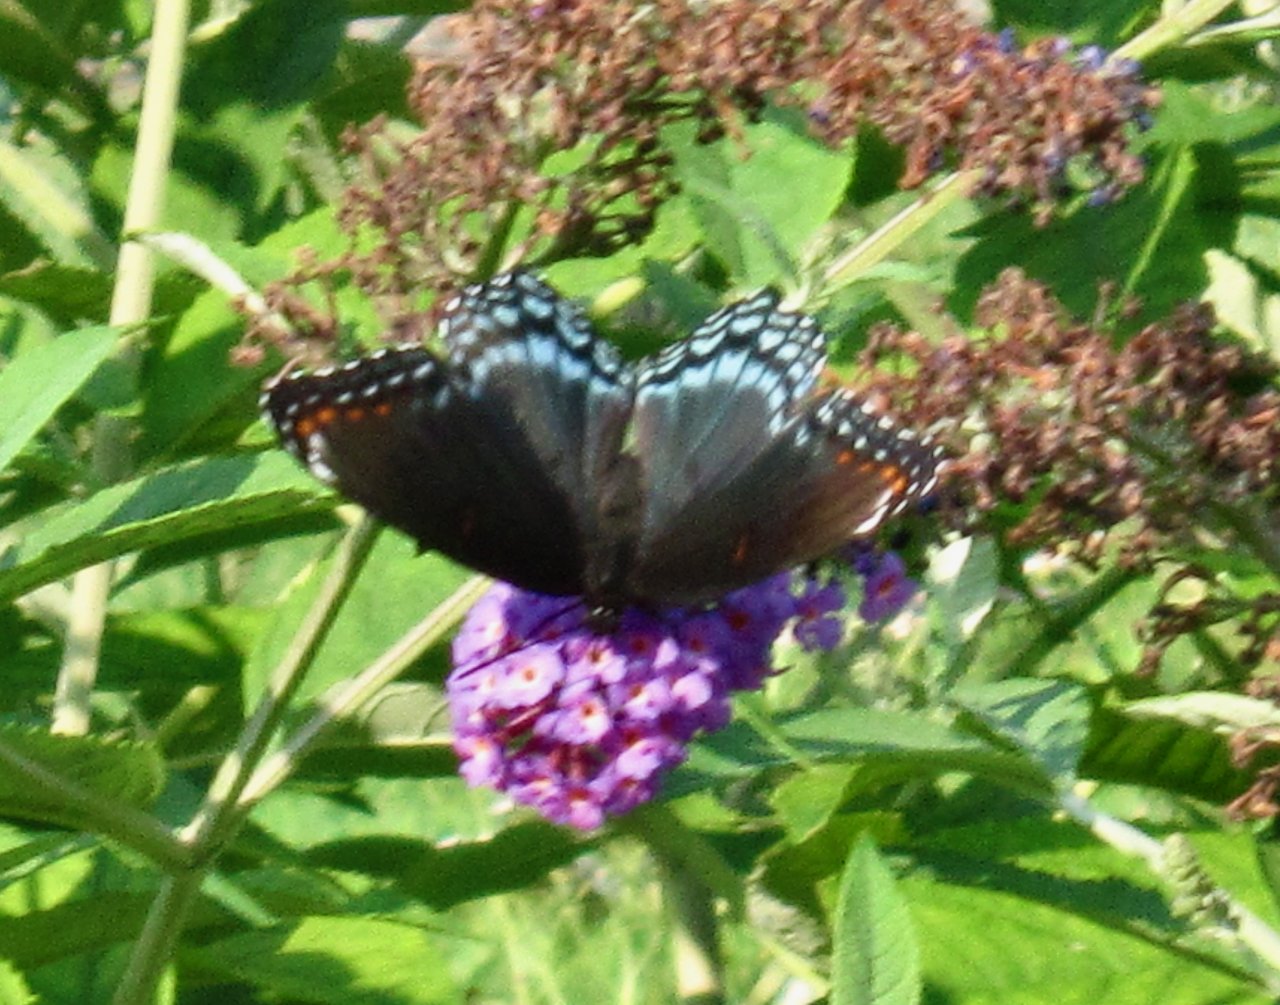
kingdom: Animalia
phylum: Arthropoda
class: Insecta
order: Lepidoptera
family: Nymphalidae
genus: Limenitis
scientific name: Limenitis astyanax
